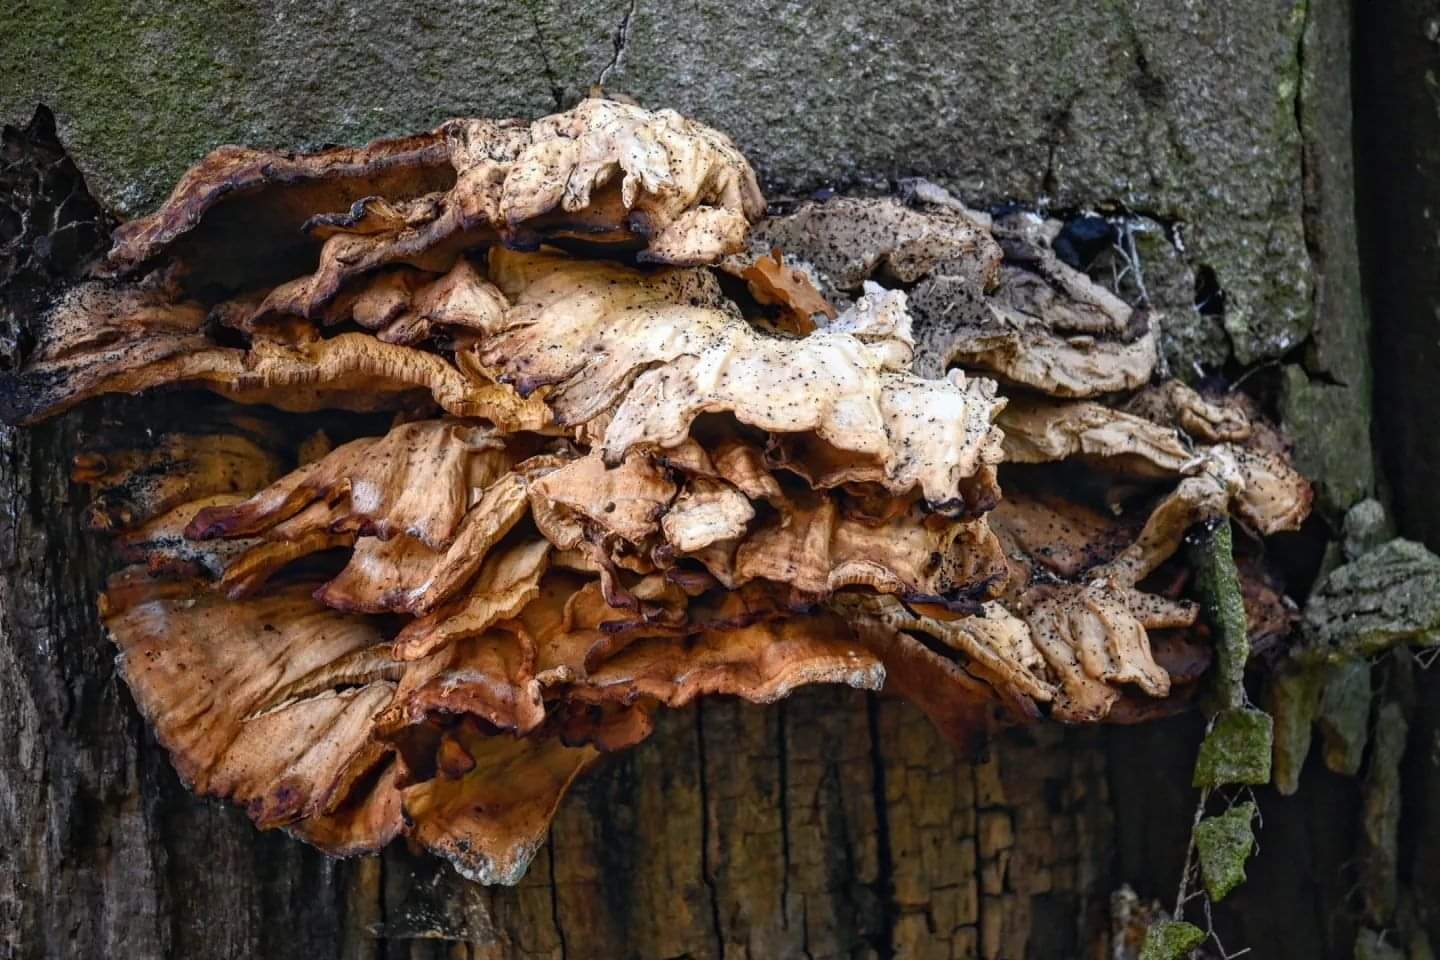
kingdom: Fungi
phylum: Basidiomycota
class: Agaricomycetes
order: Polyporales
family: Meripilaceae
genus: Meripilus
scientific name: Meripilus giganteus
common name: kæmpeporesvamp
